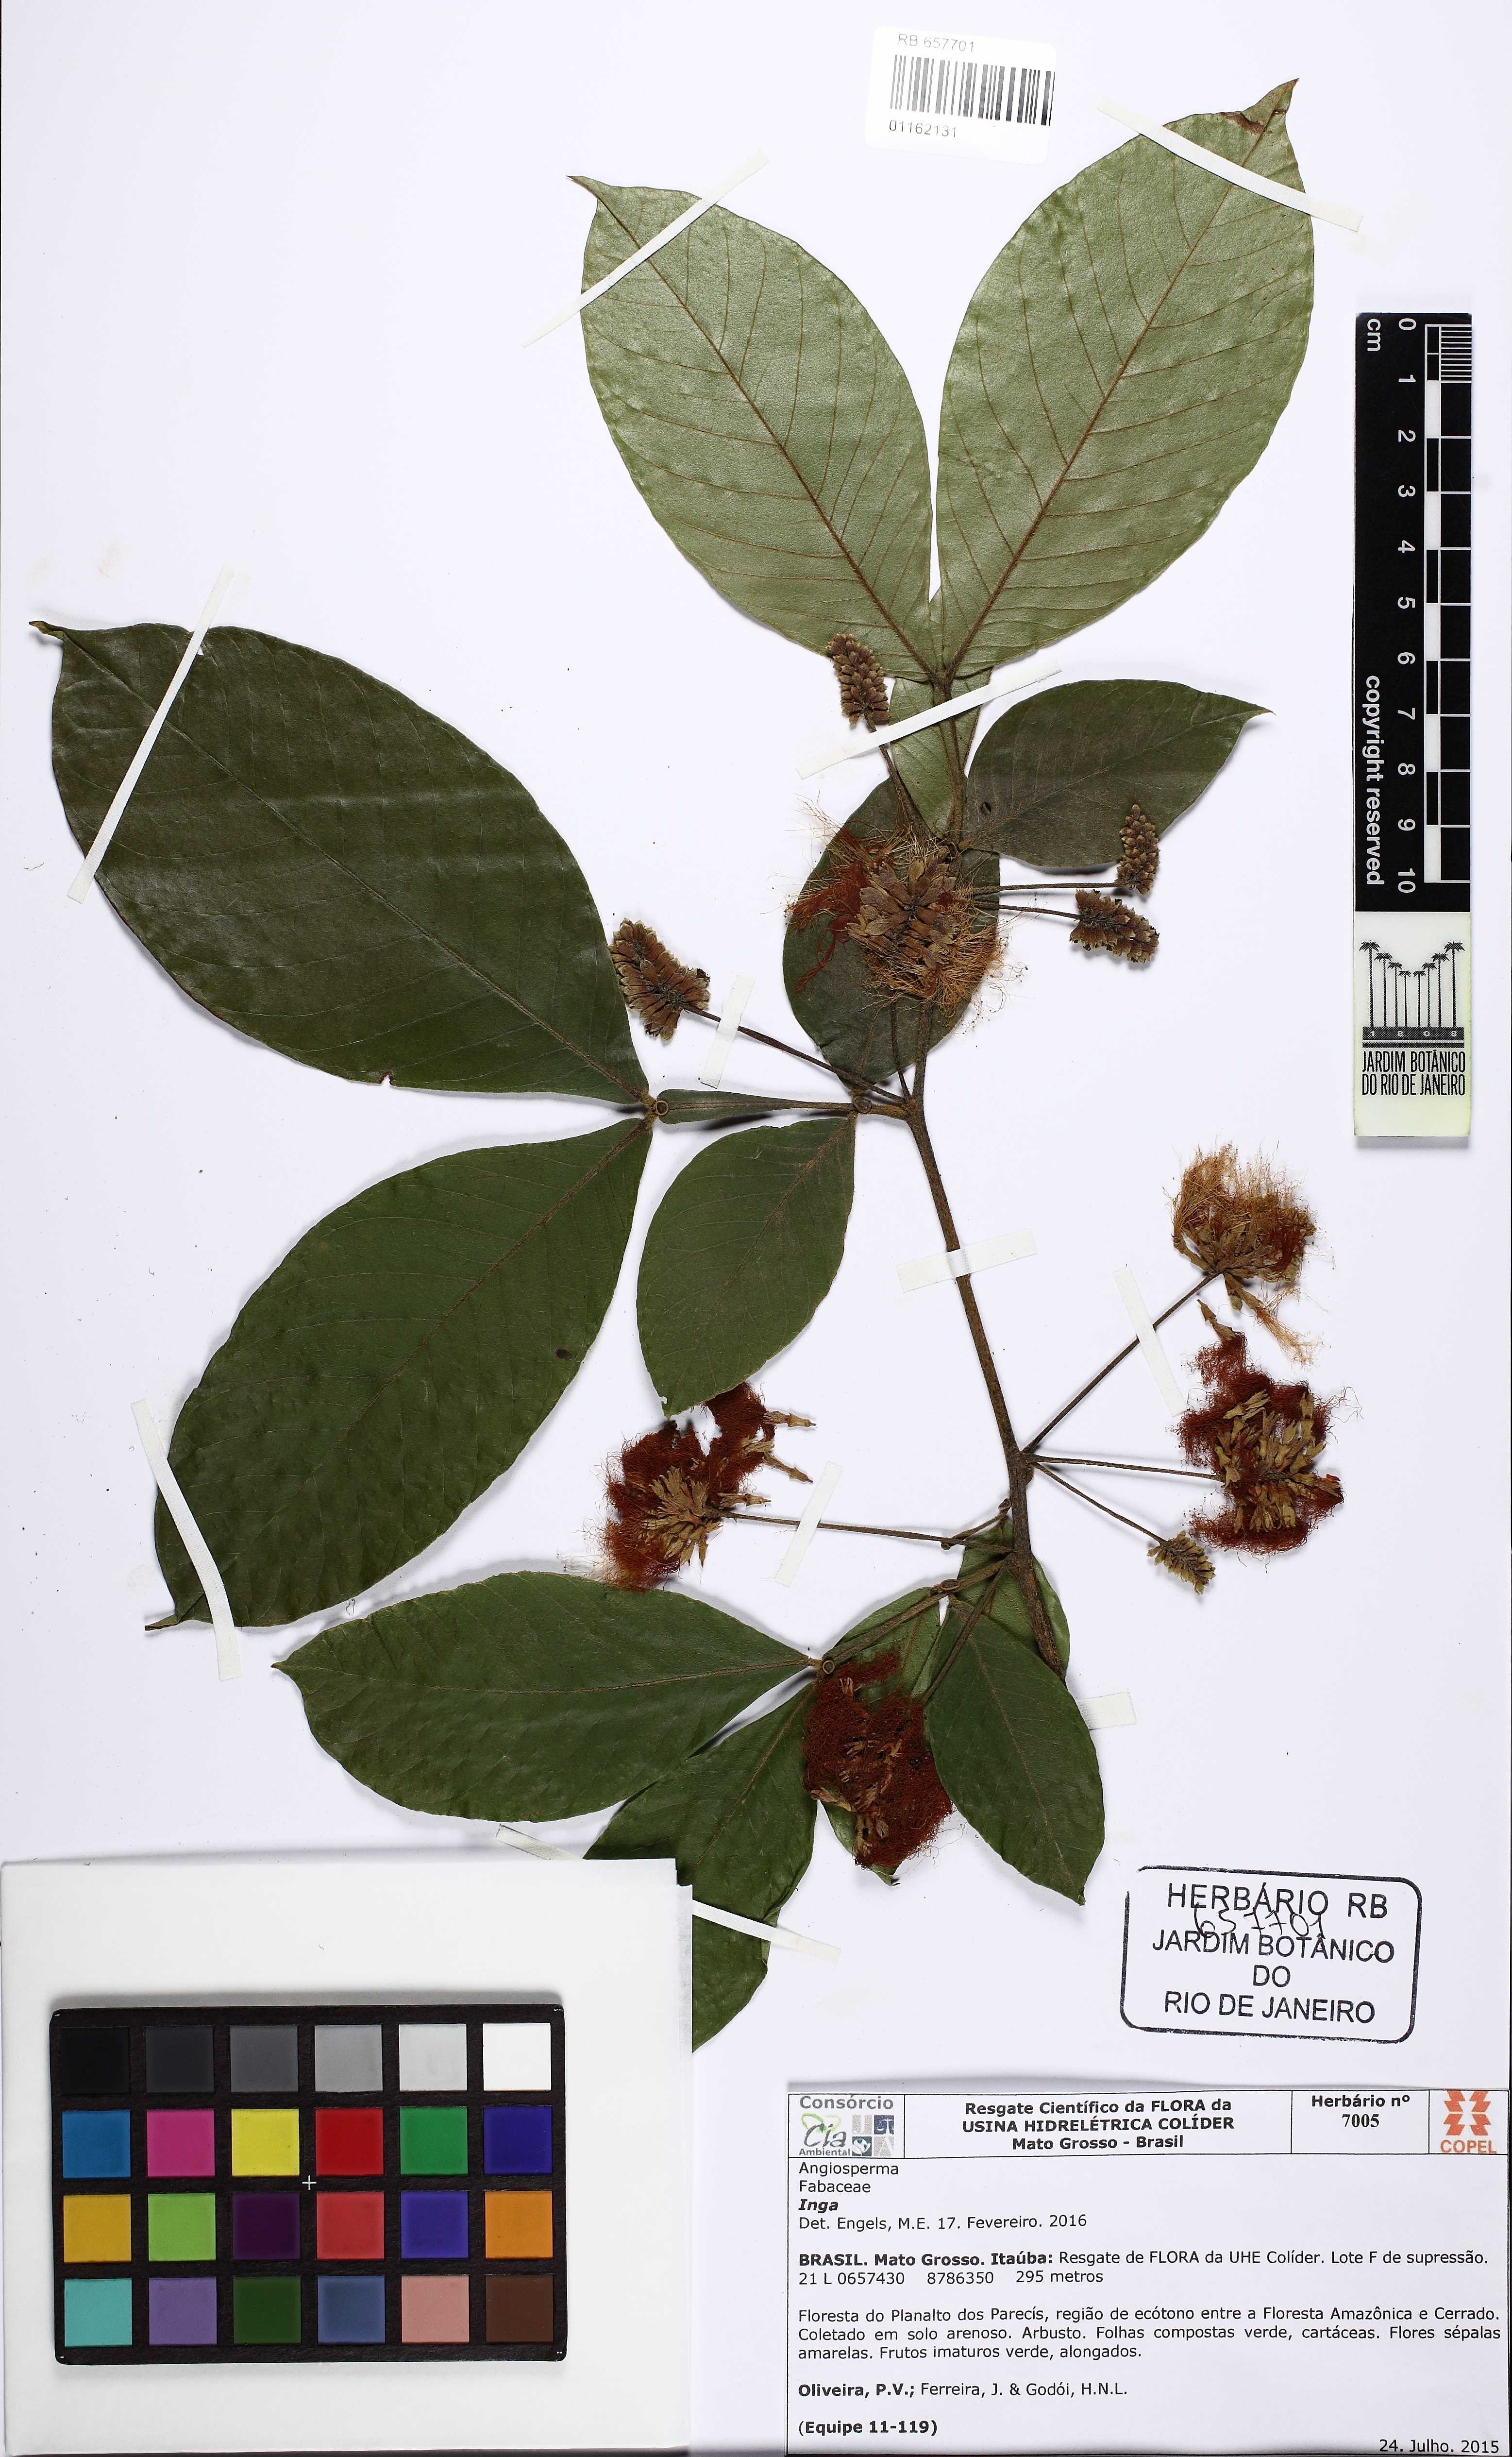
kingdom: Plantae
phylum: Tracheophyta
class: Magnoliopsida
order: Fabales
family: Fabaceae
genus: Inga
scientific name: Inga
